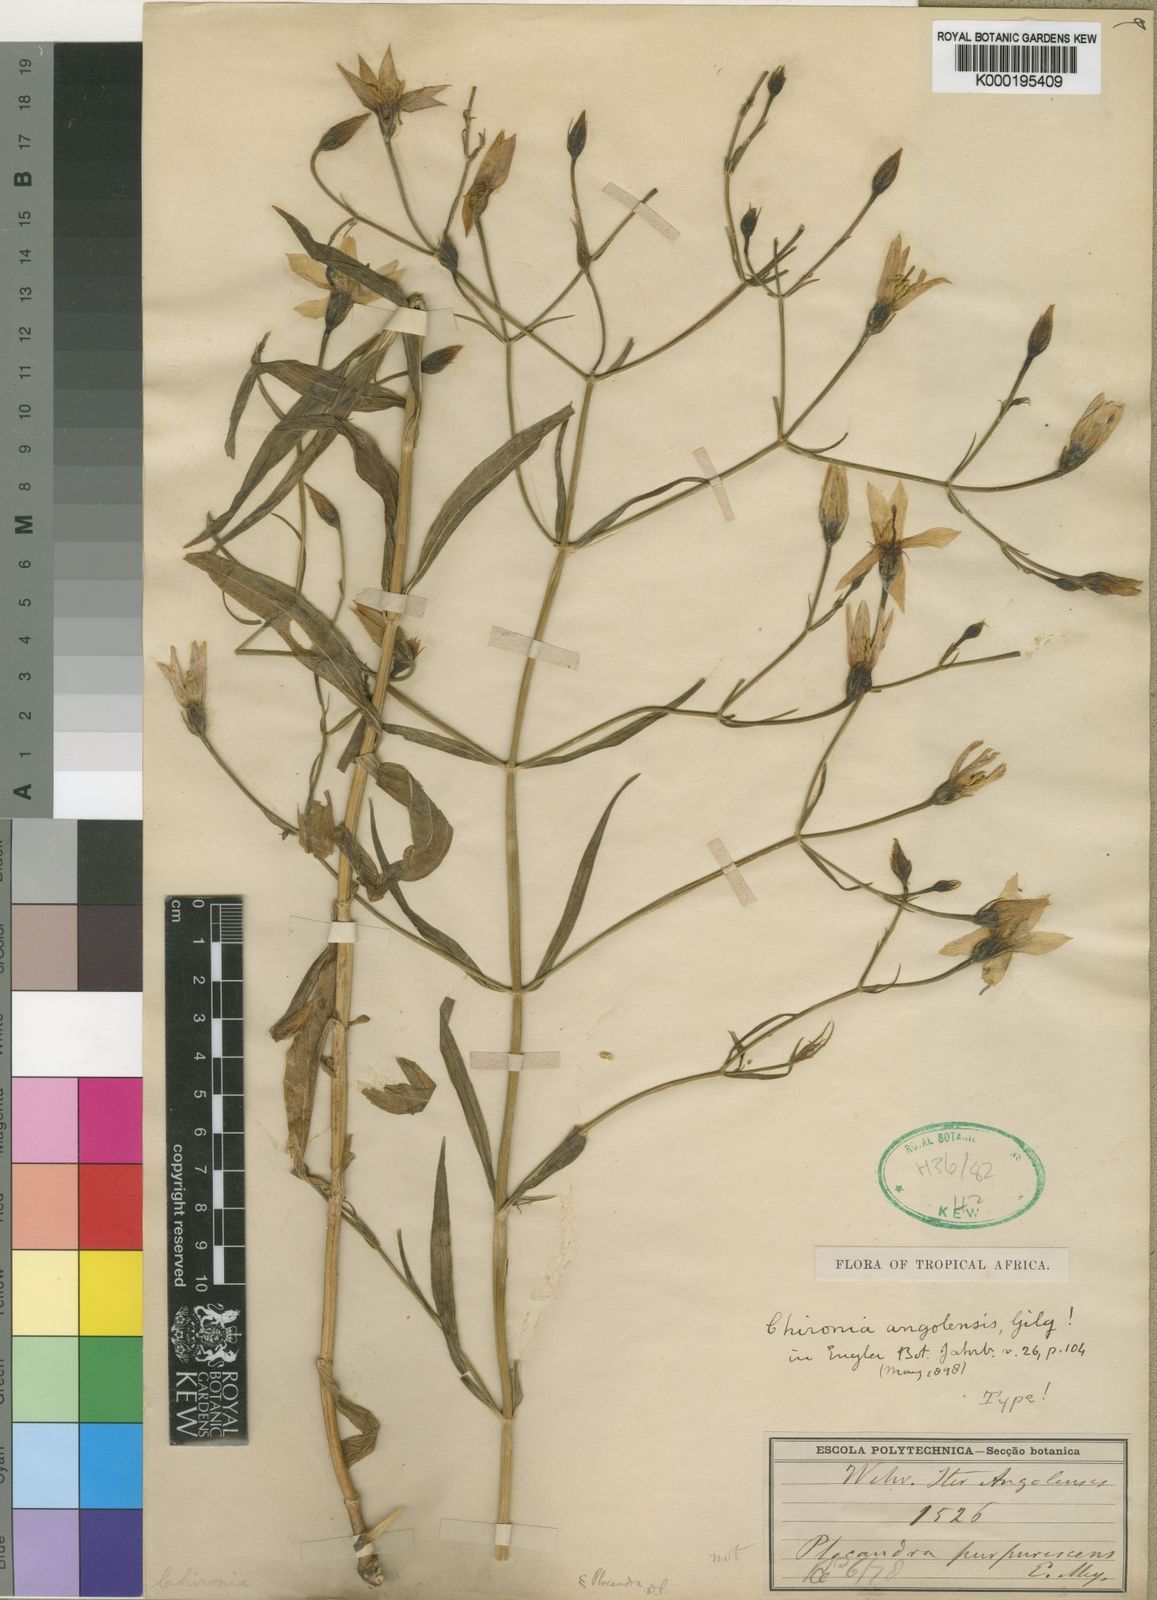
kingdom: Plantae
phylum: Tracheophyta
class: Magnoliopsida
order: Gentianales
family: Gentianaceae
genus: Chironia
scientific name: Chironia angolensis
